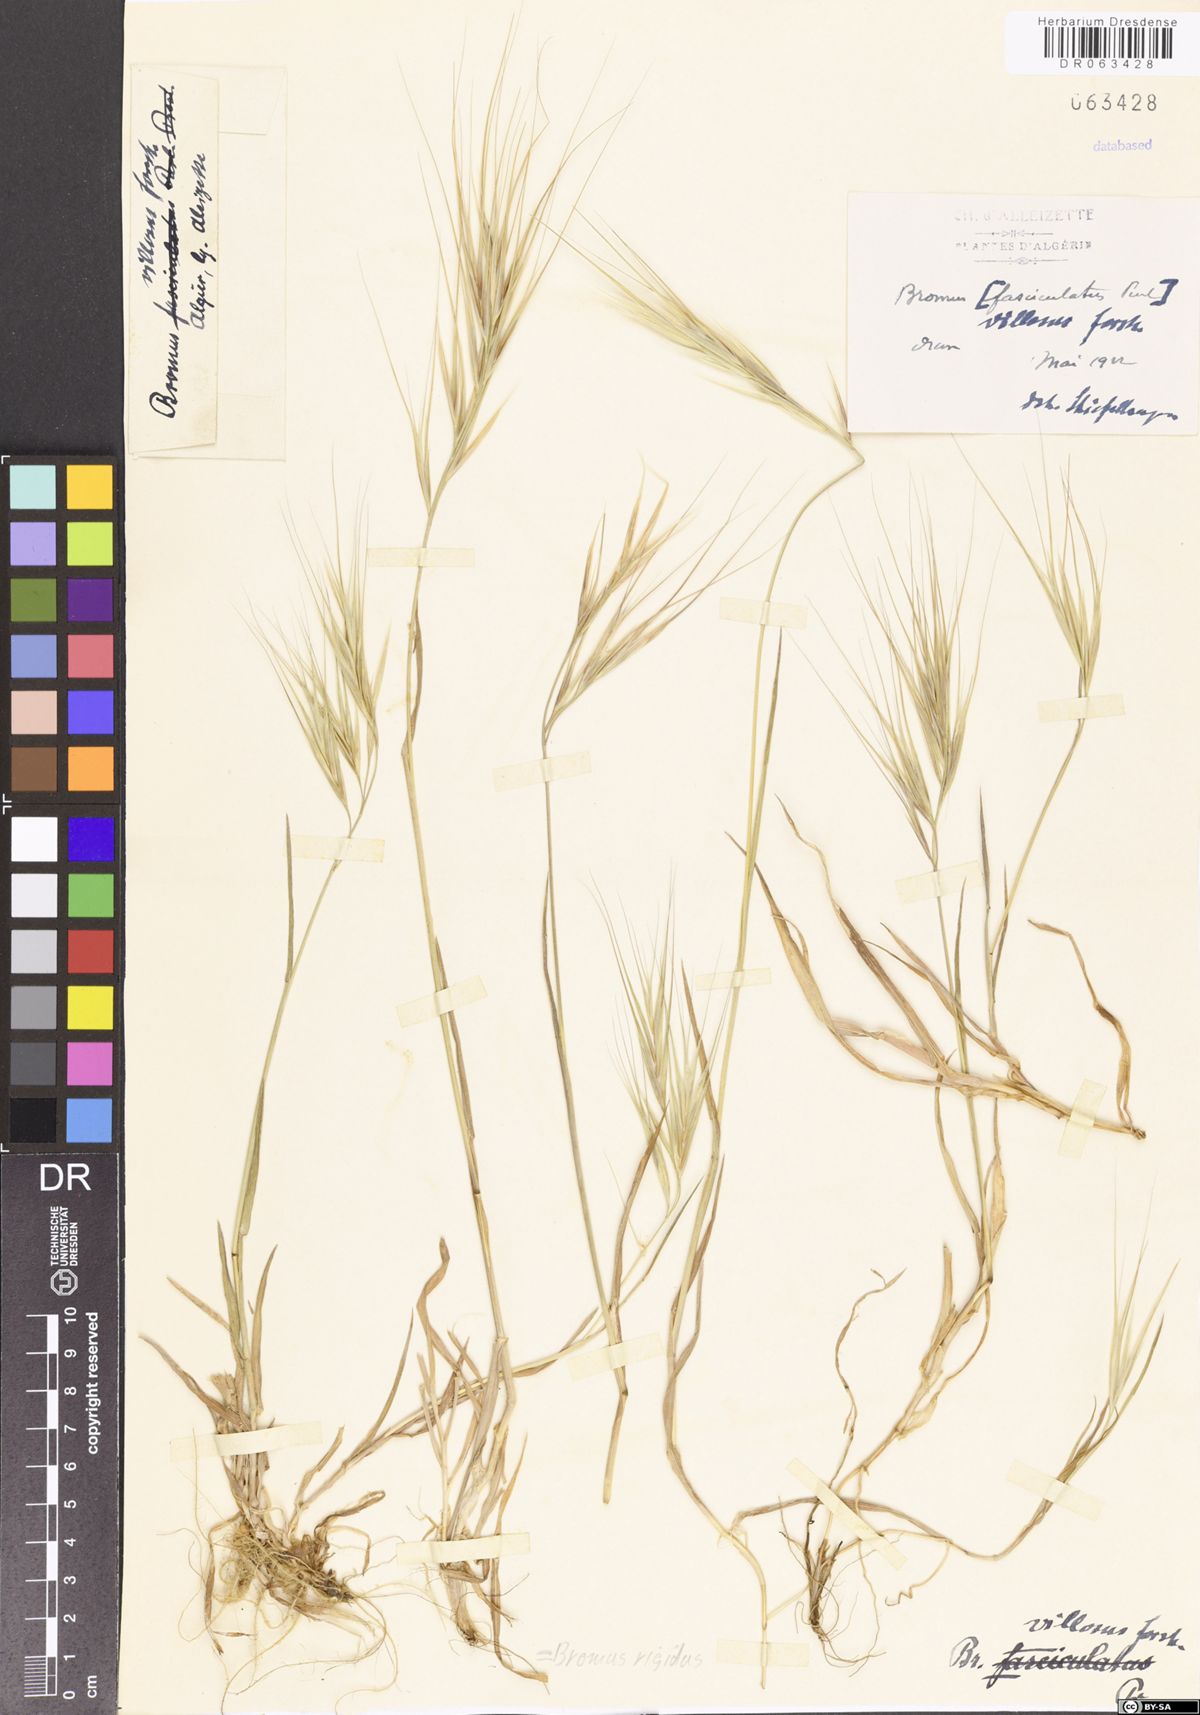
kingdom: Plantae
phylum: Tracheophyta
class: Liliopsida
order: Poales
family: Poaceae
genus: Bromus
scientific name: Bromus rigidus
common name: Ripgut brome
